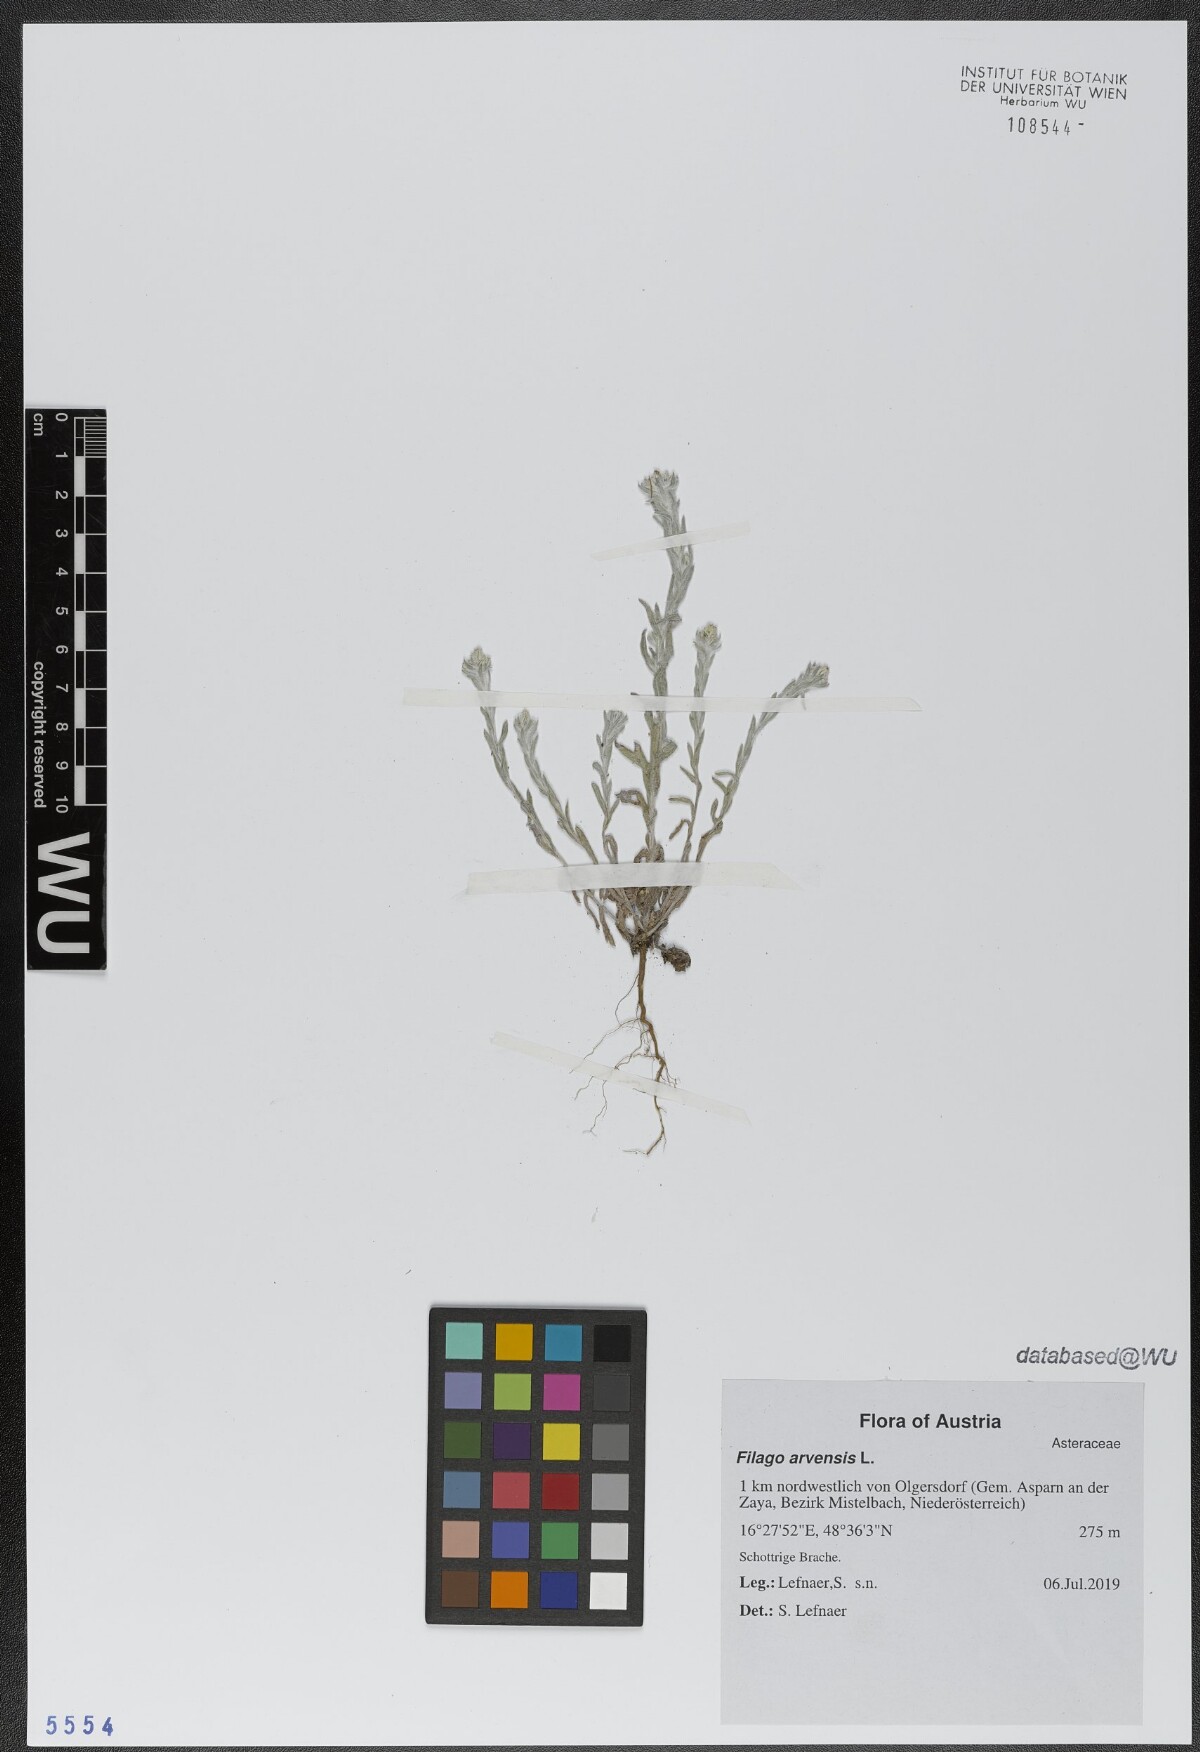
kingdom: Plantae
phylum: Tracheophyta
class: Magnoliopsida
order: Asterales
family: Asteraceae
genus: Filago
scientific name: Filago arvensis
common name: Field cudweed
